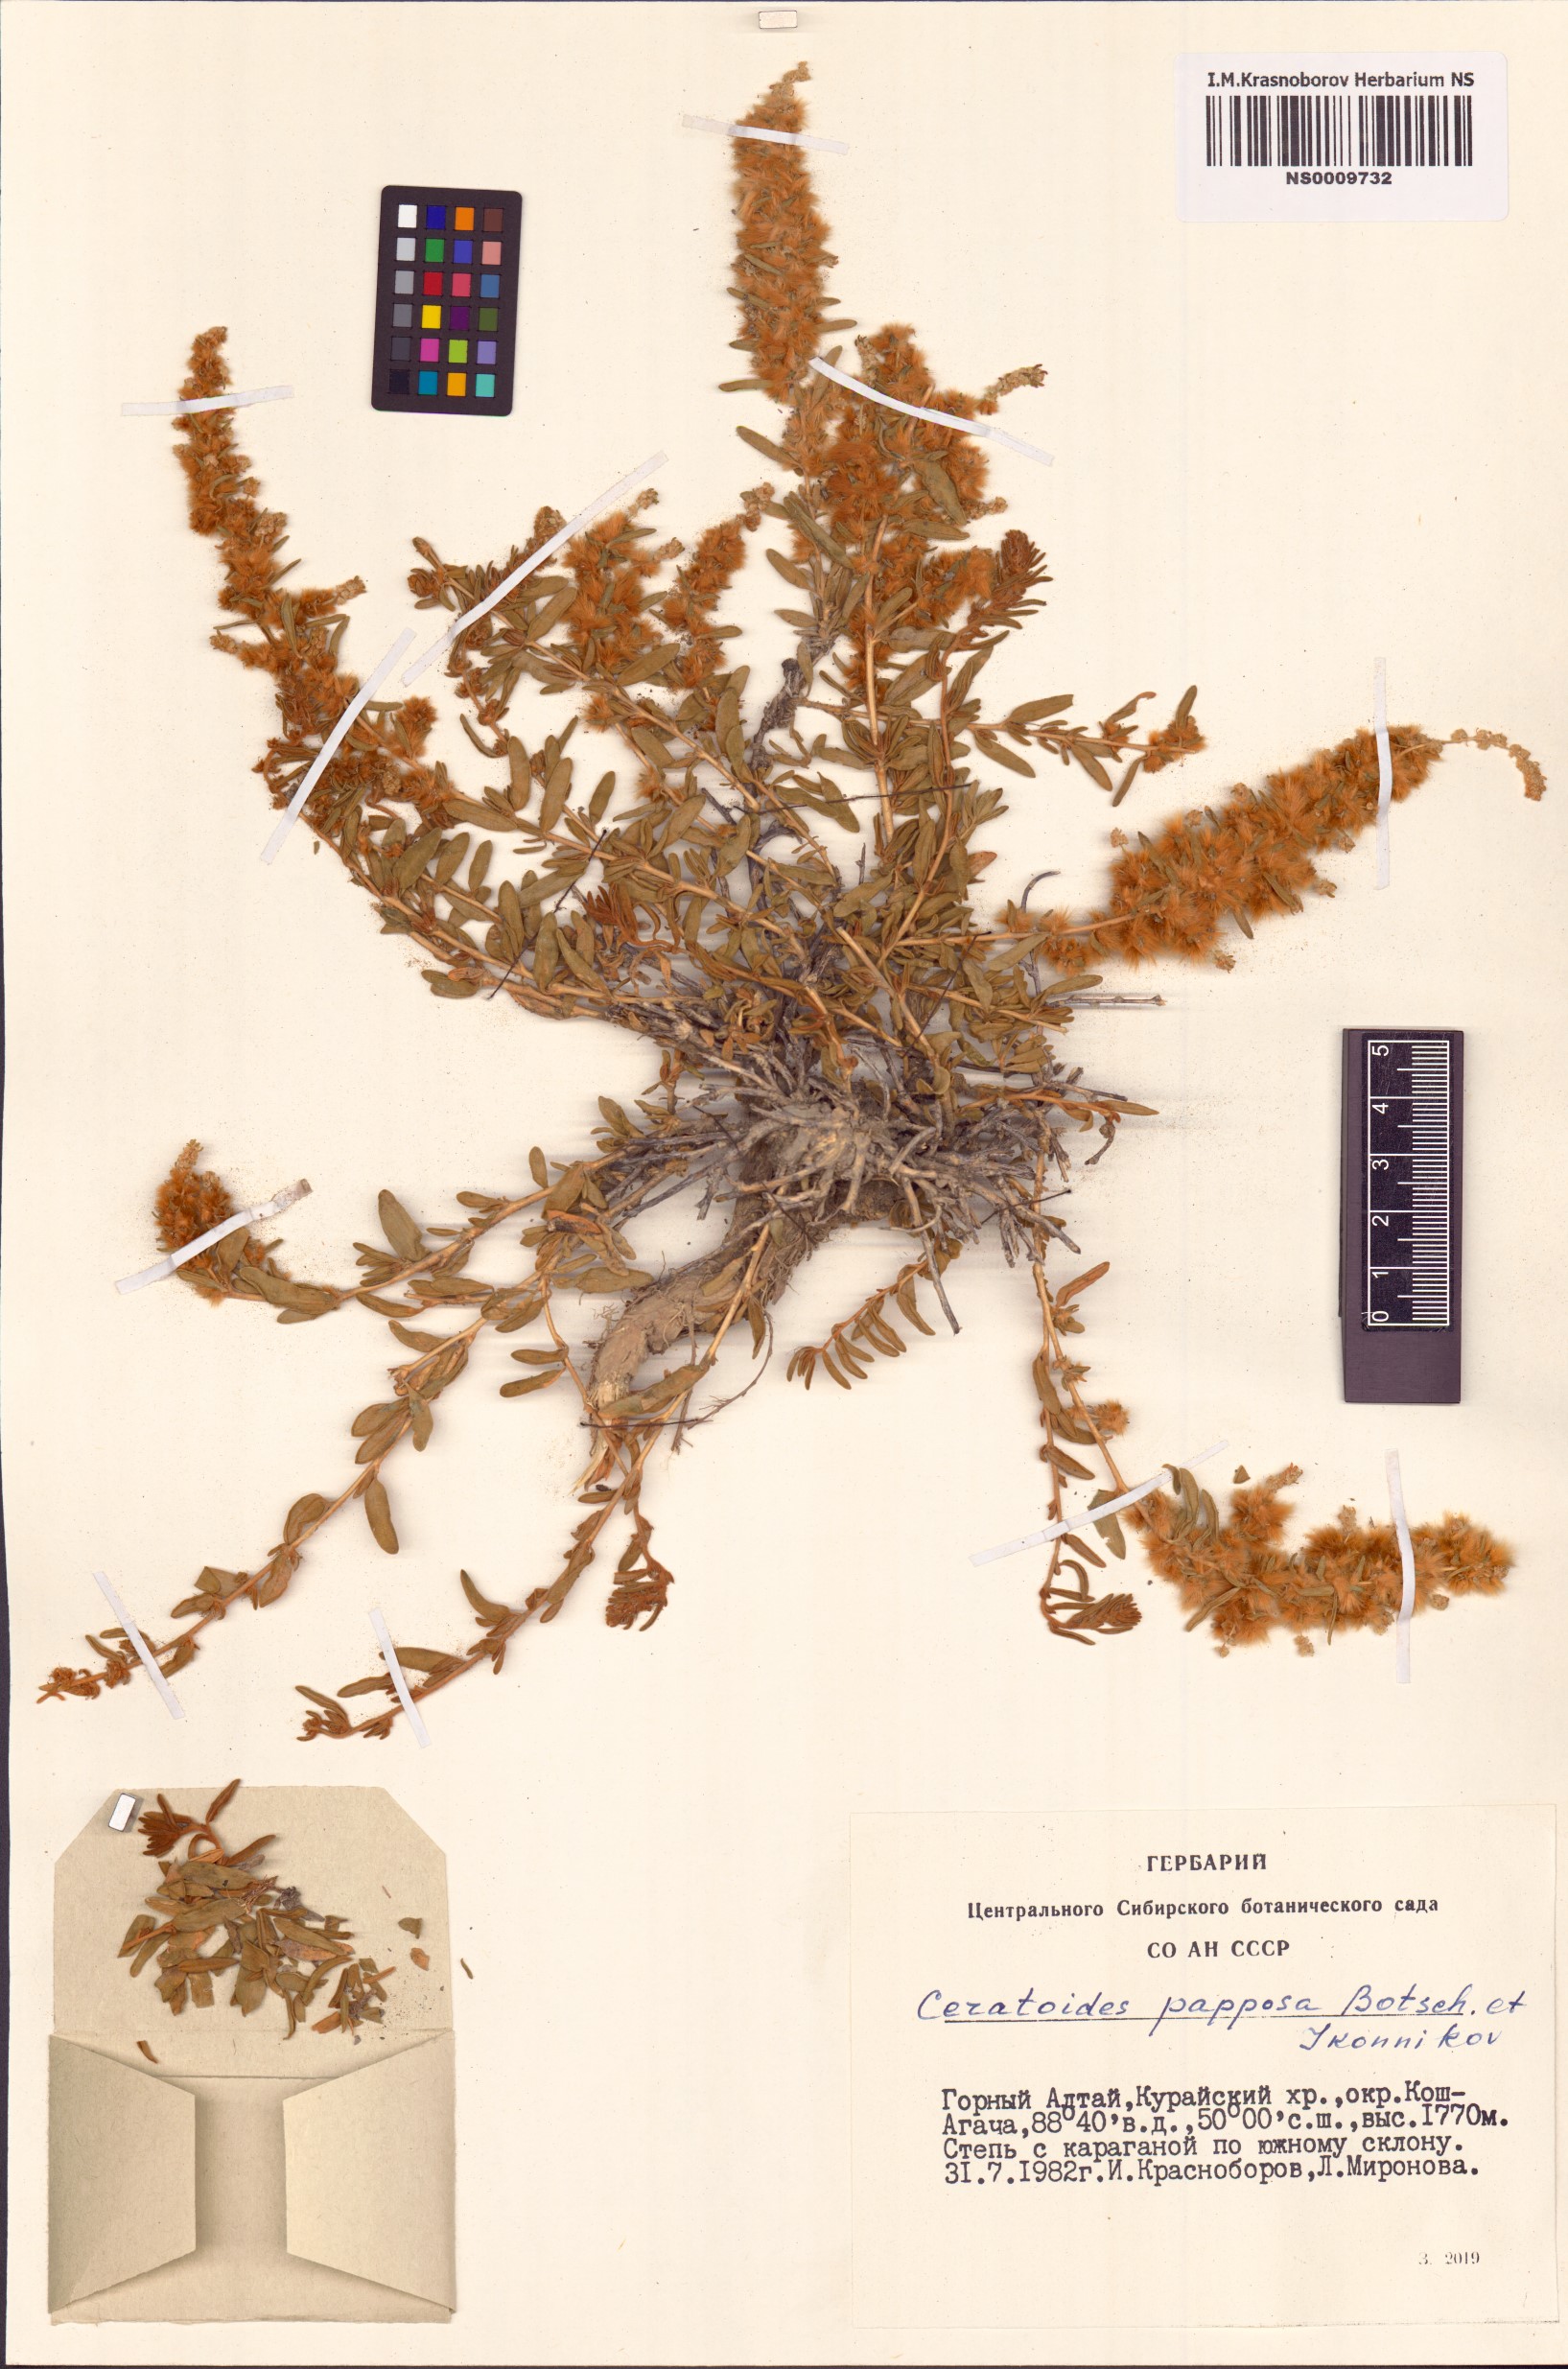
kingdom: Plantae
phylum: Tracheophyta
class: Magnoliopsida
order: Caryophyllales
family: Amaranthaceae
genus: Krascheninnikovia
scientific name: Krascheninnikovia ceratoides
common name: Pamirian winterfat
